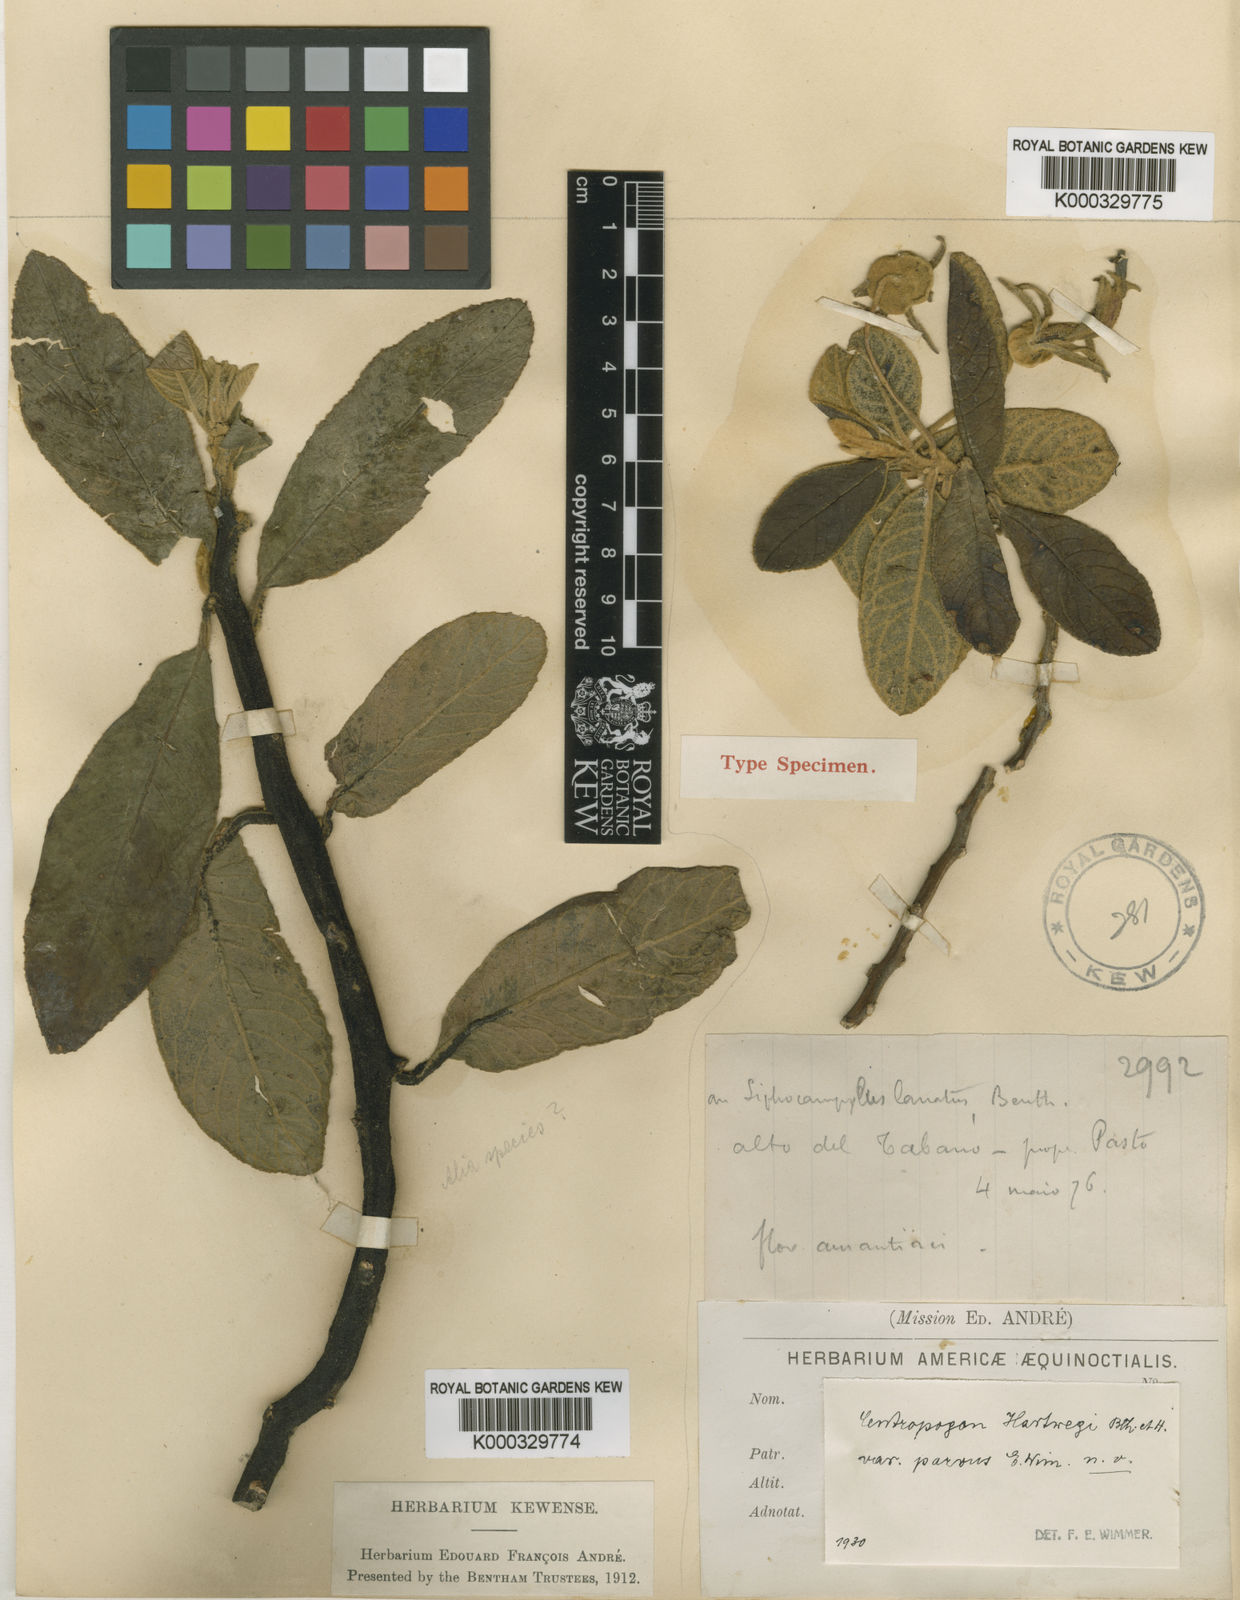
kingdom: Plantae
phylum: Tracheophyta
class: Magnoliopsida
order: Asterales
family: Campanulaceae
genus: Centropogon
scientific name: Centropogon hartwegii
